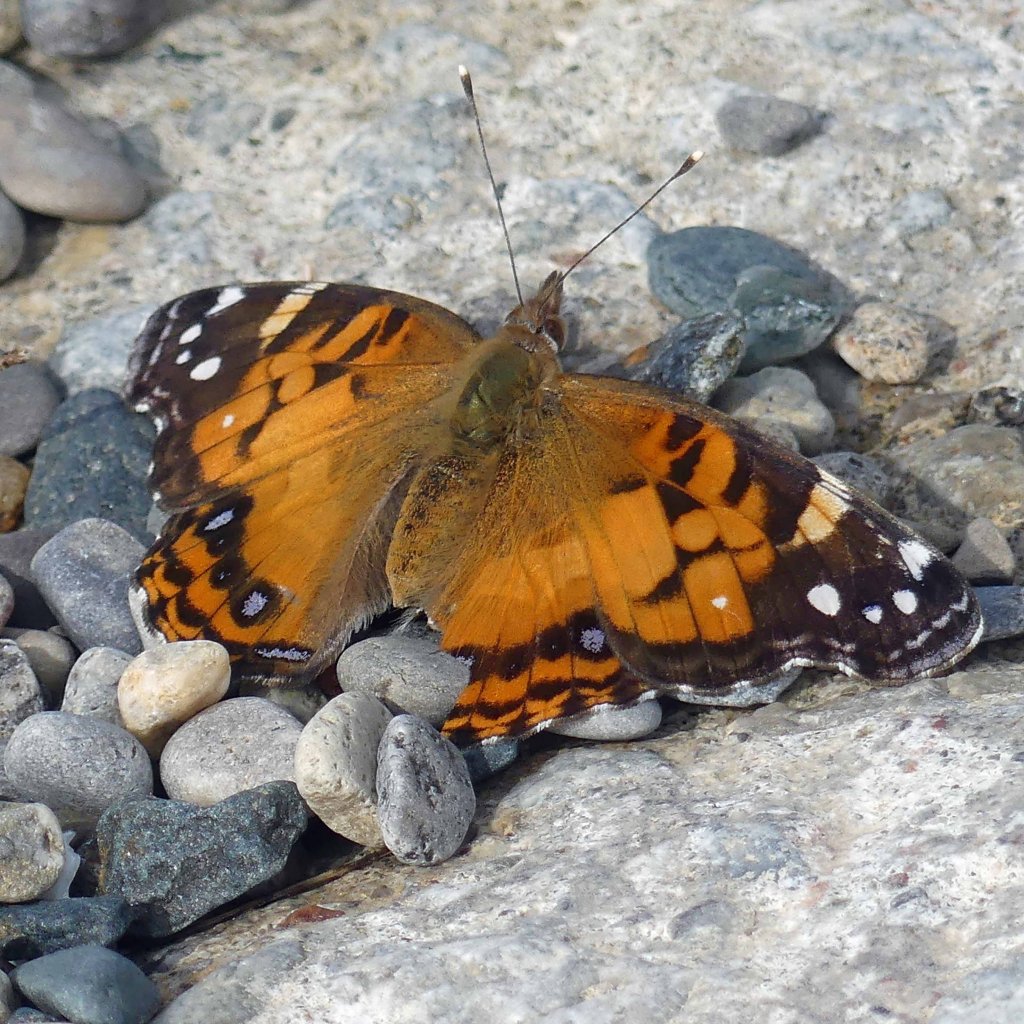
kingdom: Animalia
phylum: Arthropoda
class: Insecta
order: Lepidoptera
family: Nymphalidae
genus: Vanessa
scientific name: Vanessa virginiensis
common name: American Lady
